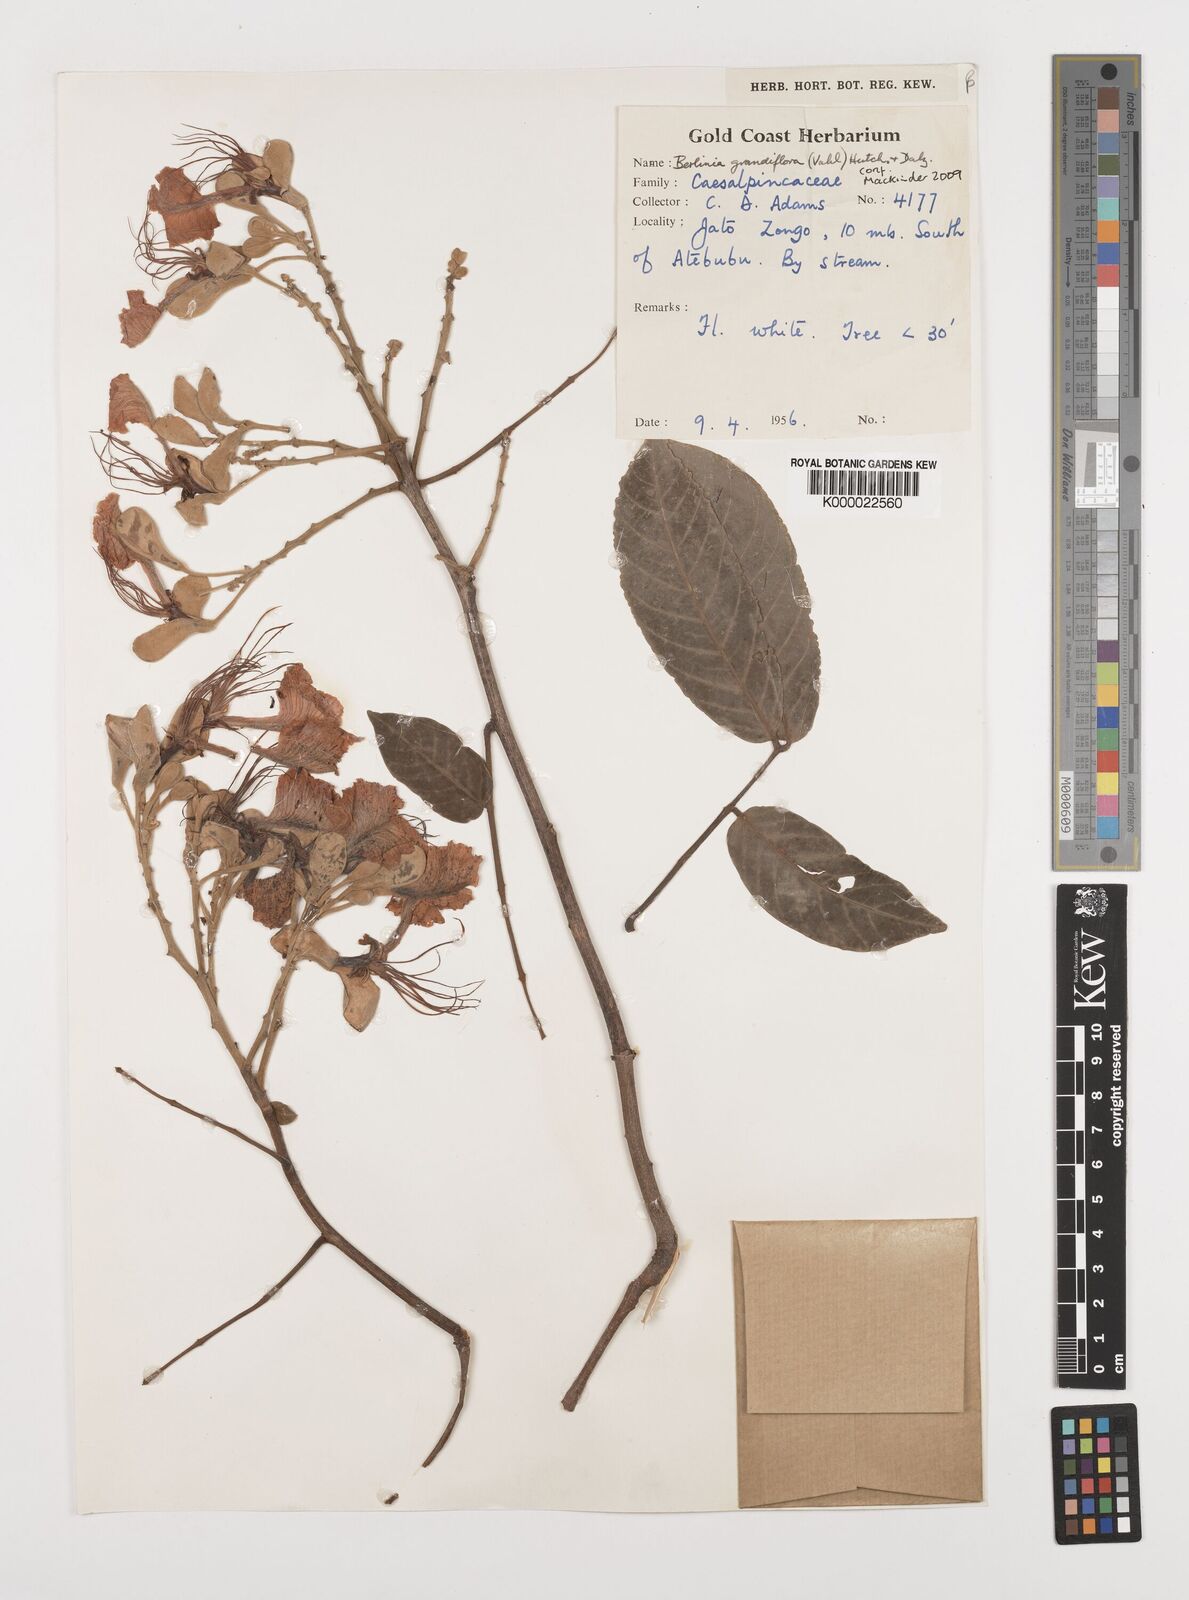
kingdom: Plantae
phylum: Tracheophyta
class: Magnoliopsida
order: Fabales
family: Fabaceae
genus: Berlinia
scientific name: Berlinia grandiflora
